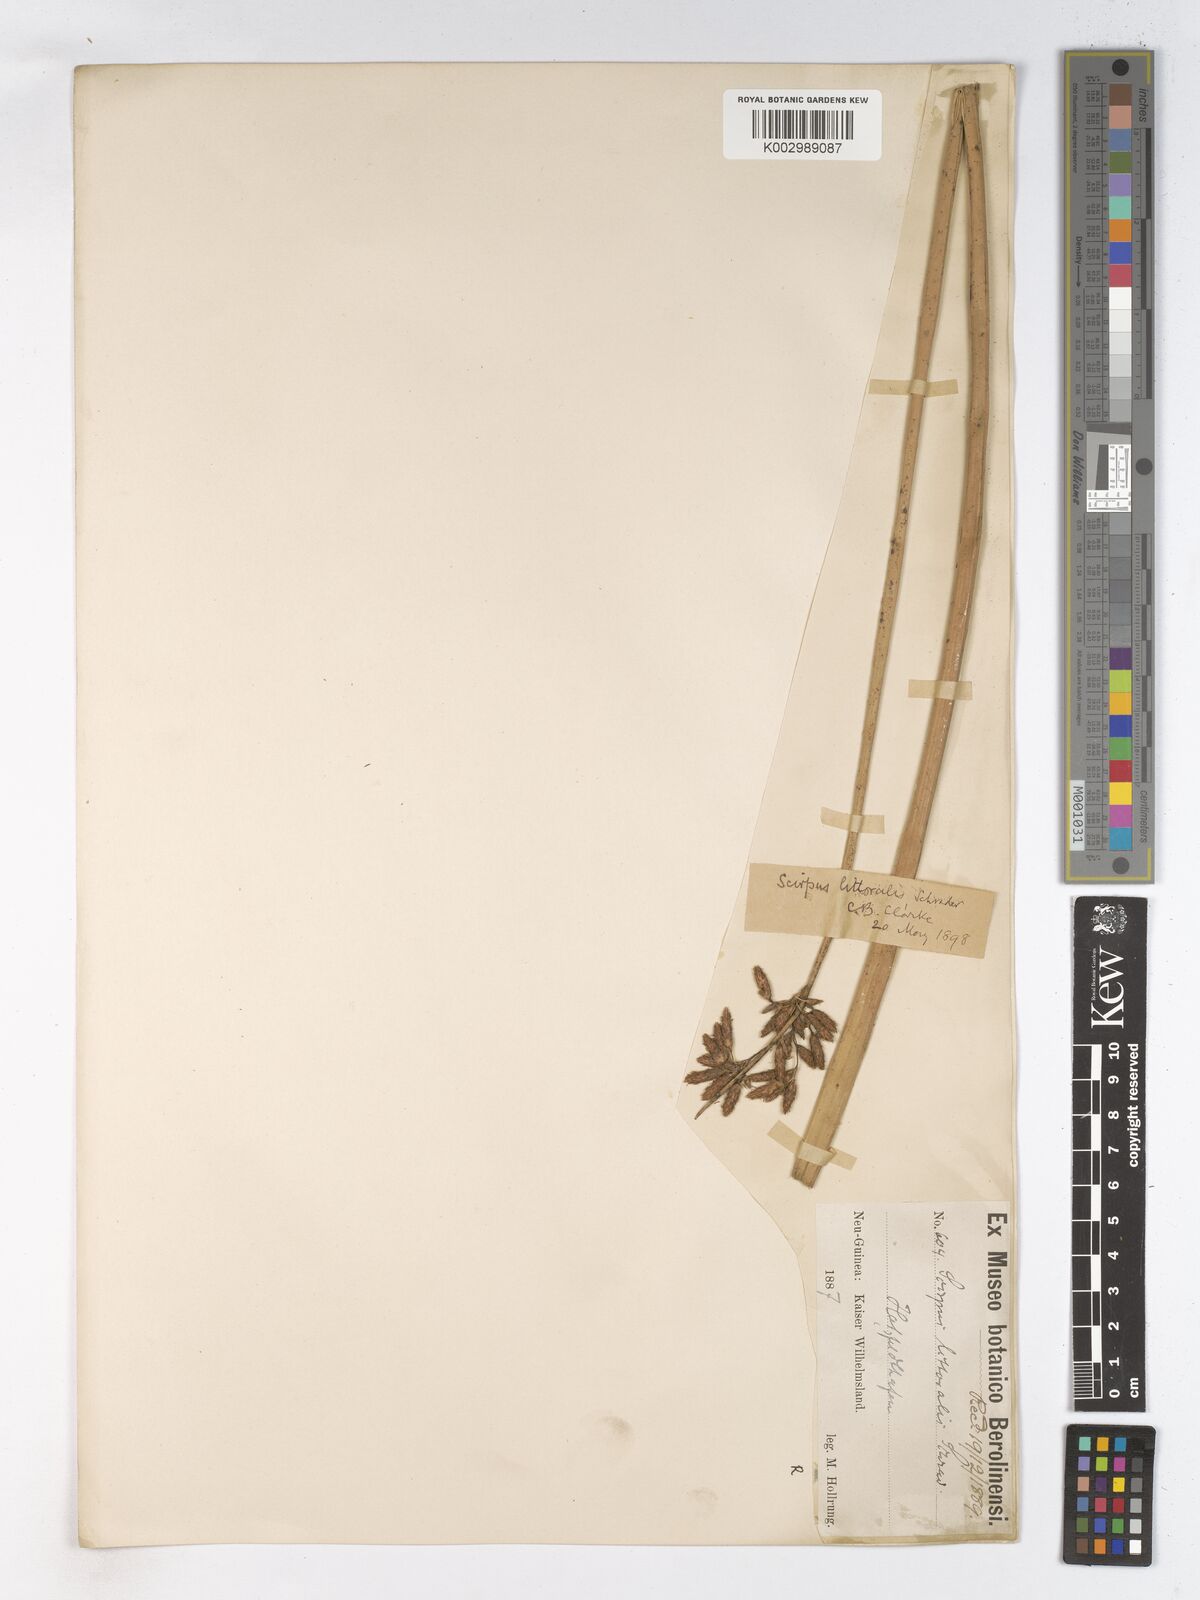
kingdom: Plantae
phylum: Tracheophyta
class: Liliopsida
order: Poales
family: Cyperaceae
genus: Schoenoplectus
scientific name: Schoenoplectus litoralis
